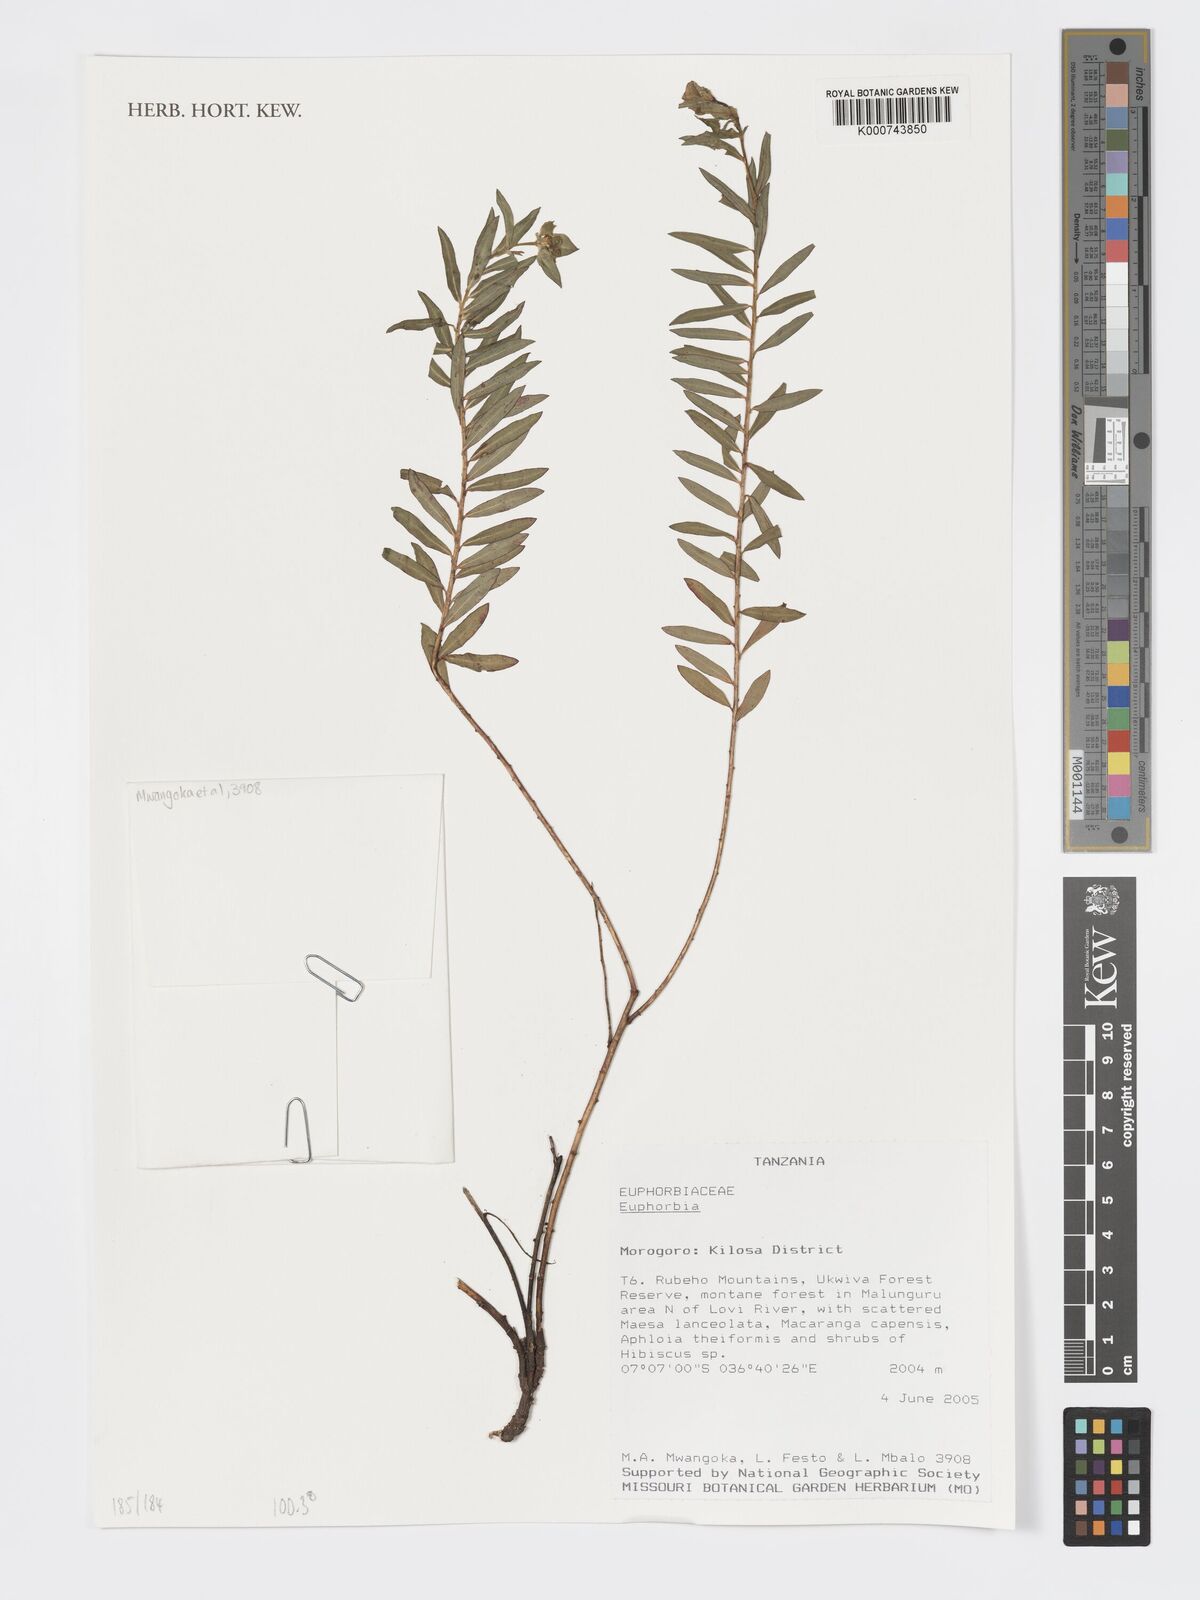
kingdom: Plantae
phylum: Tracheophyta
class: Magnoliopsida
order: Malpighiales
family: Euphorbiaceae
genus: Euphorbia
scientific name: Euphorbia
